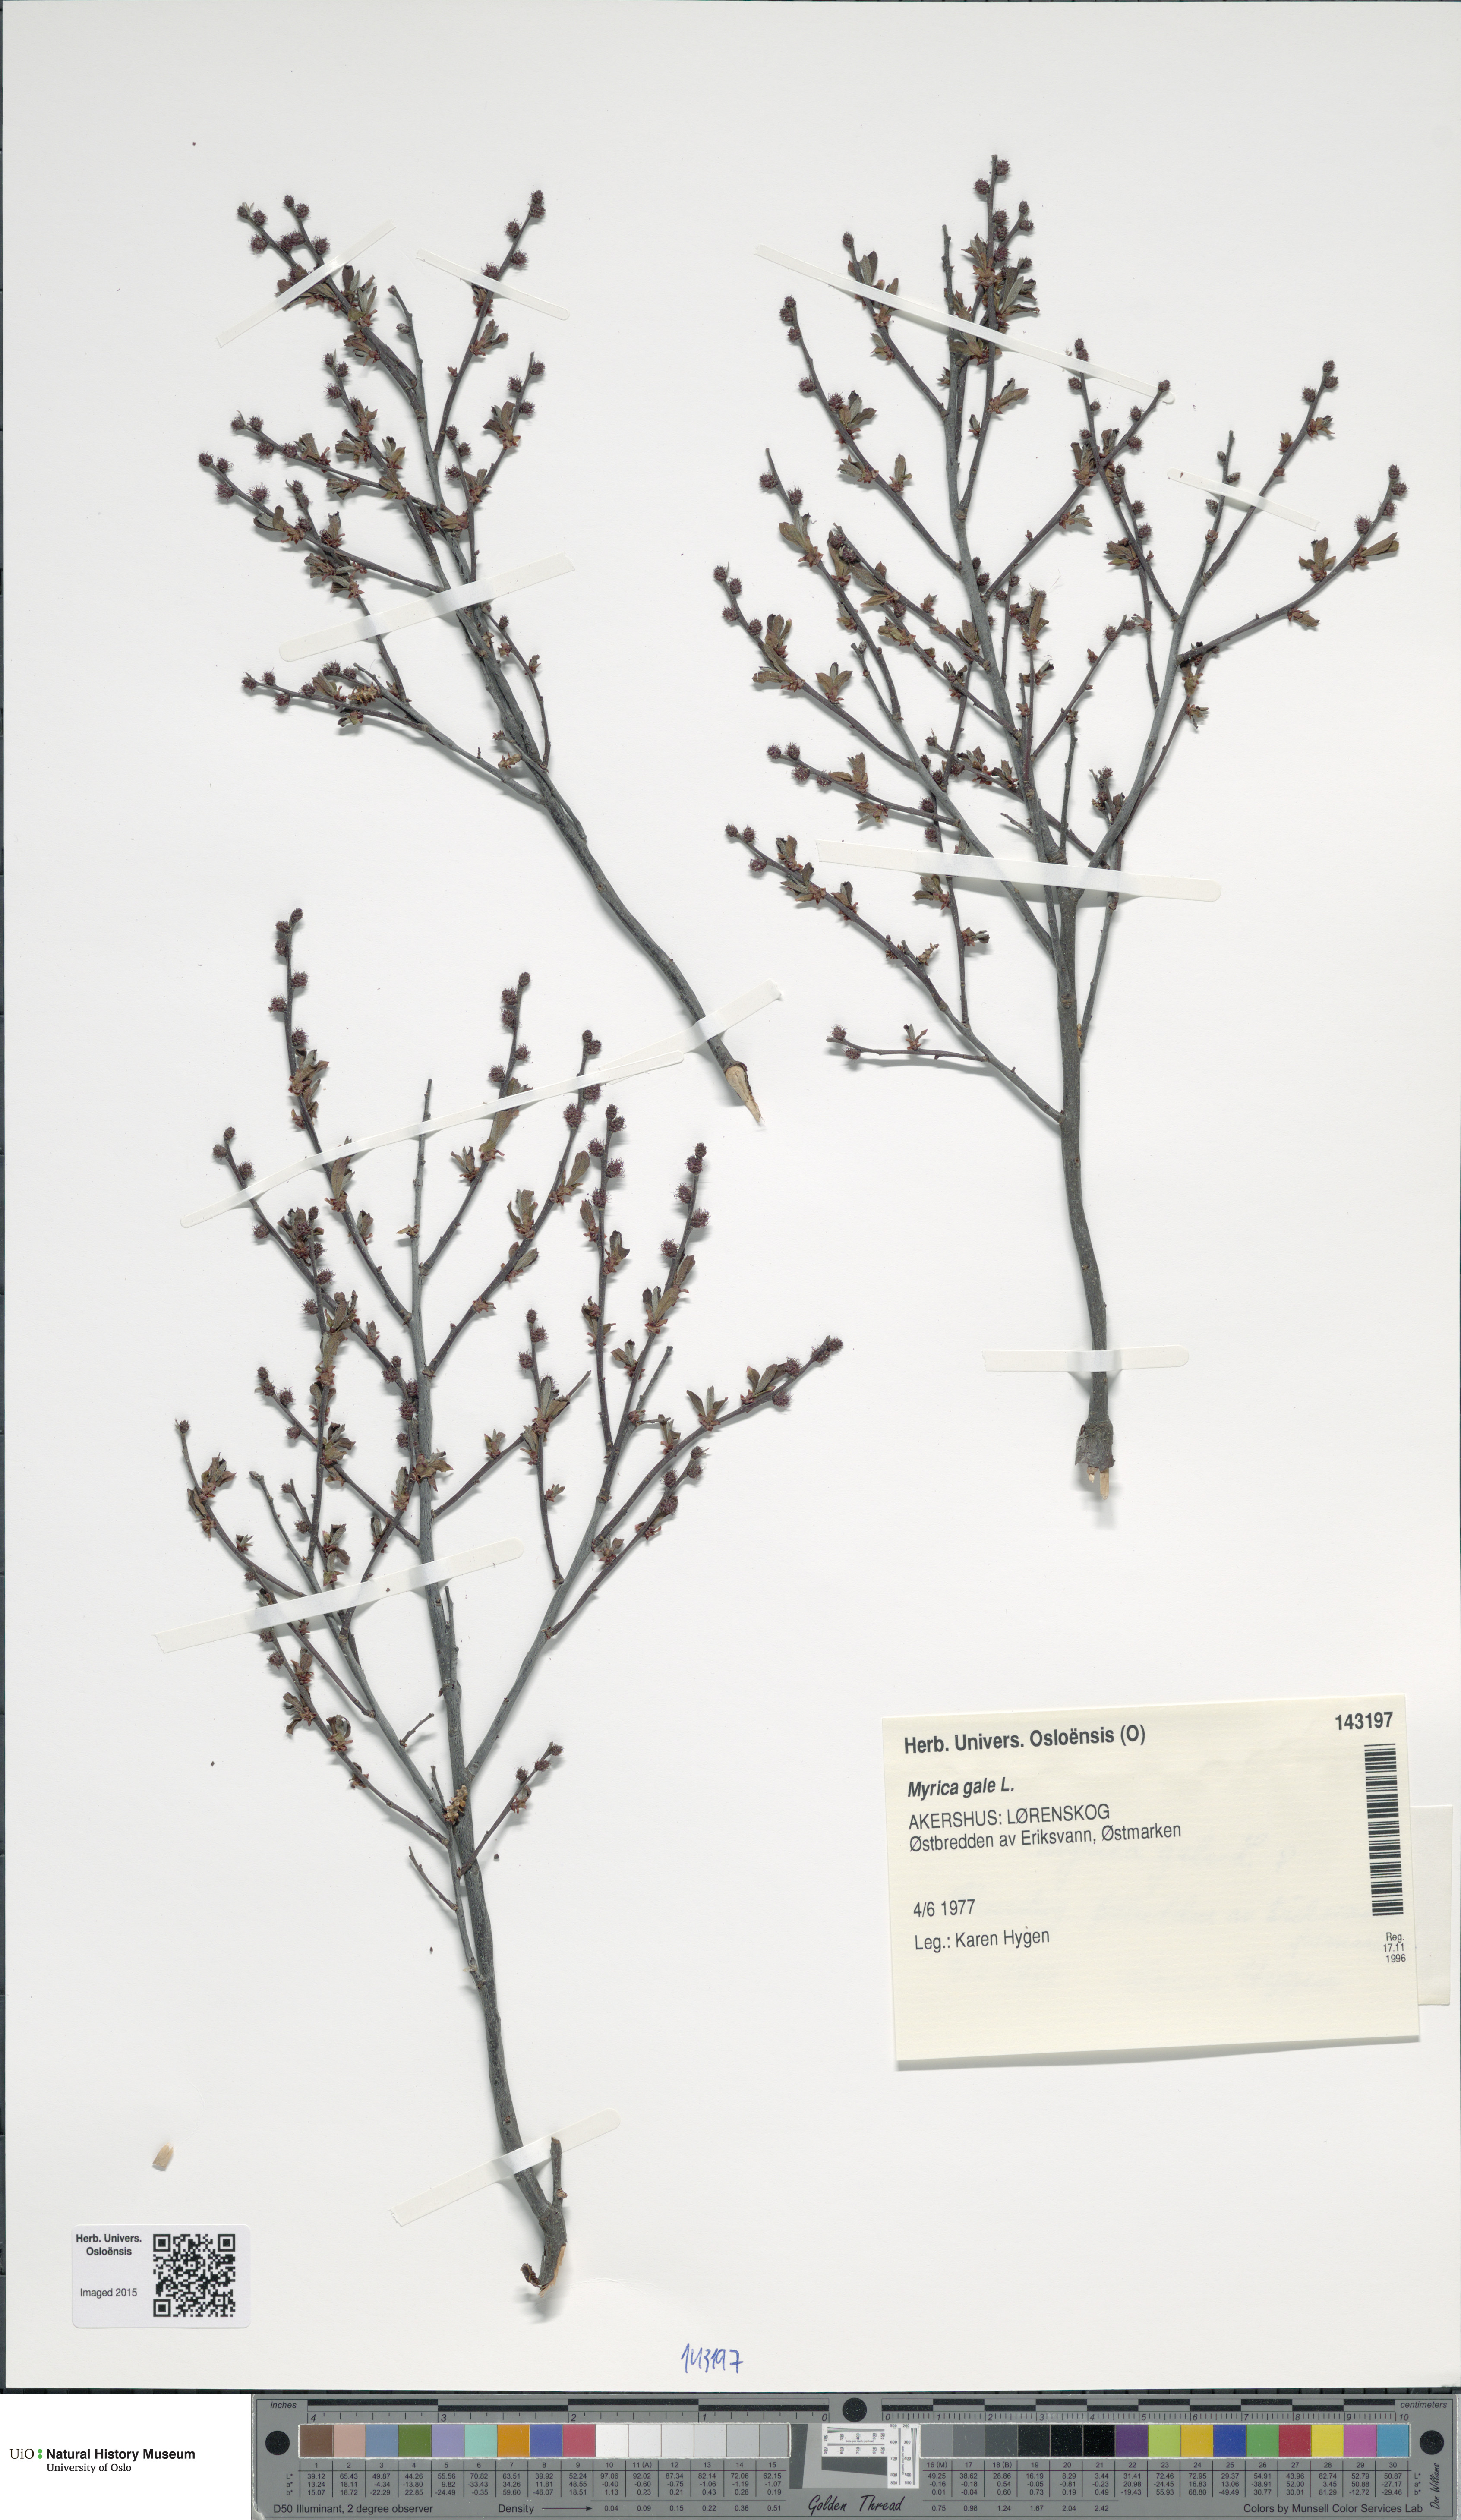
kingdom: Plantae
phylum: Tracheophyta
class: Magnoliopsida
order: Fagales
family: Myricaceae
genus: Myrica
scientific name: Myrica gale
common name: Sweet gale
